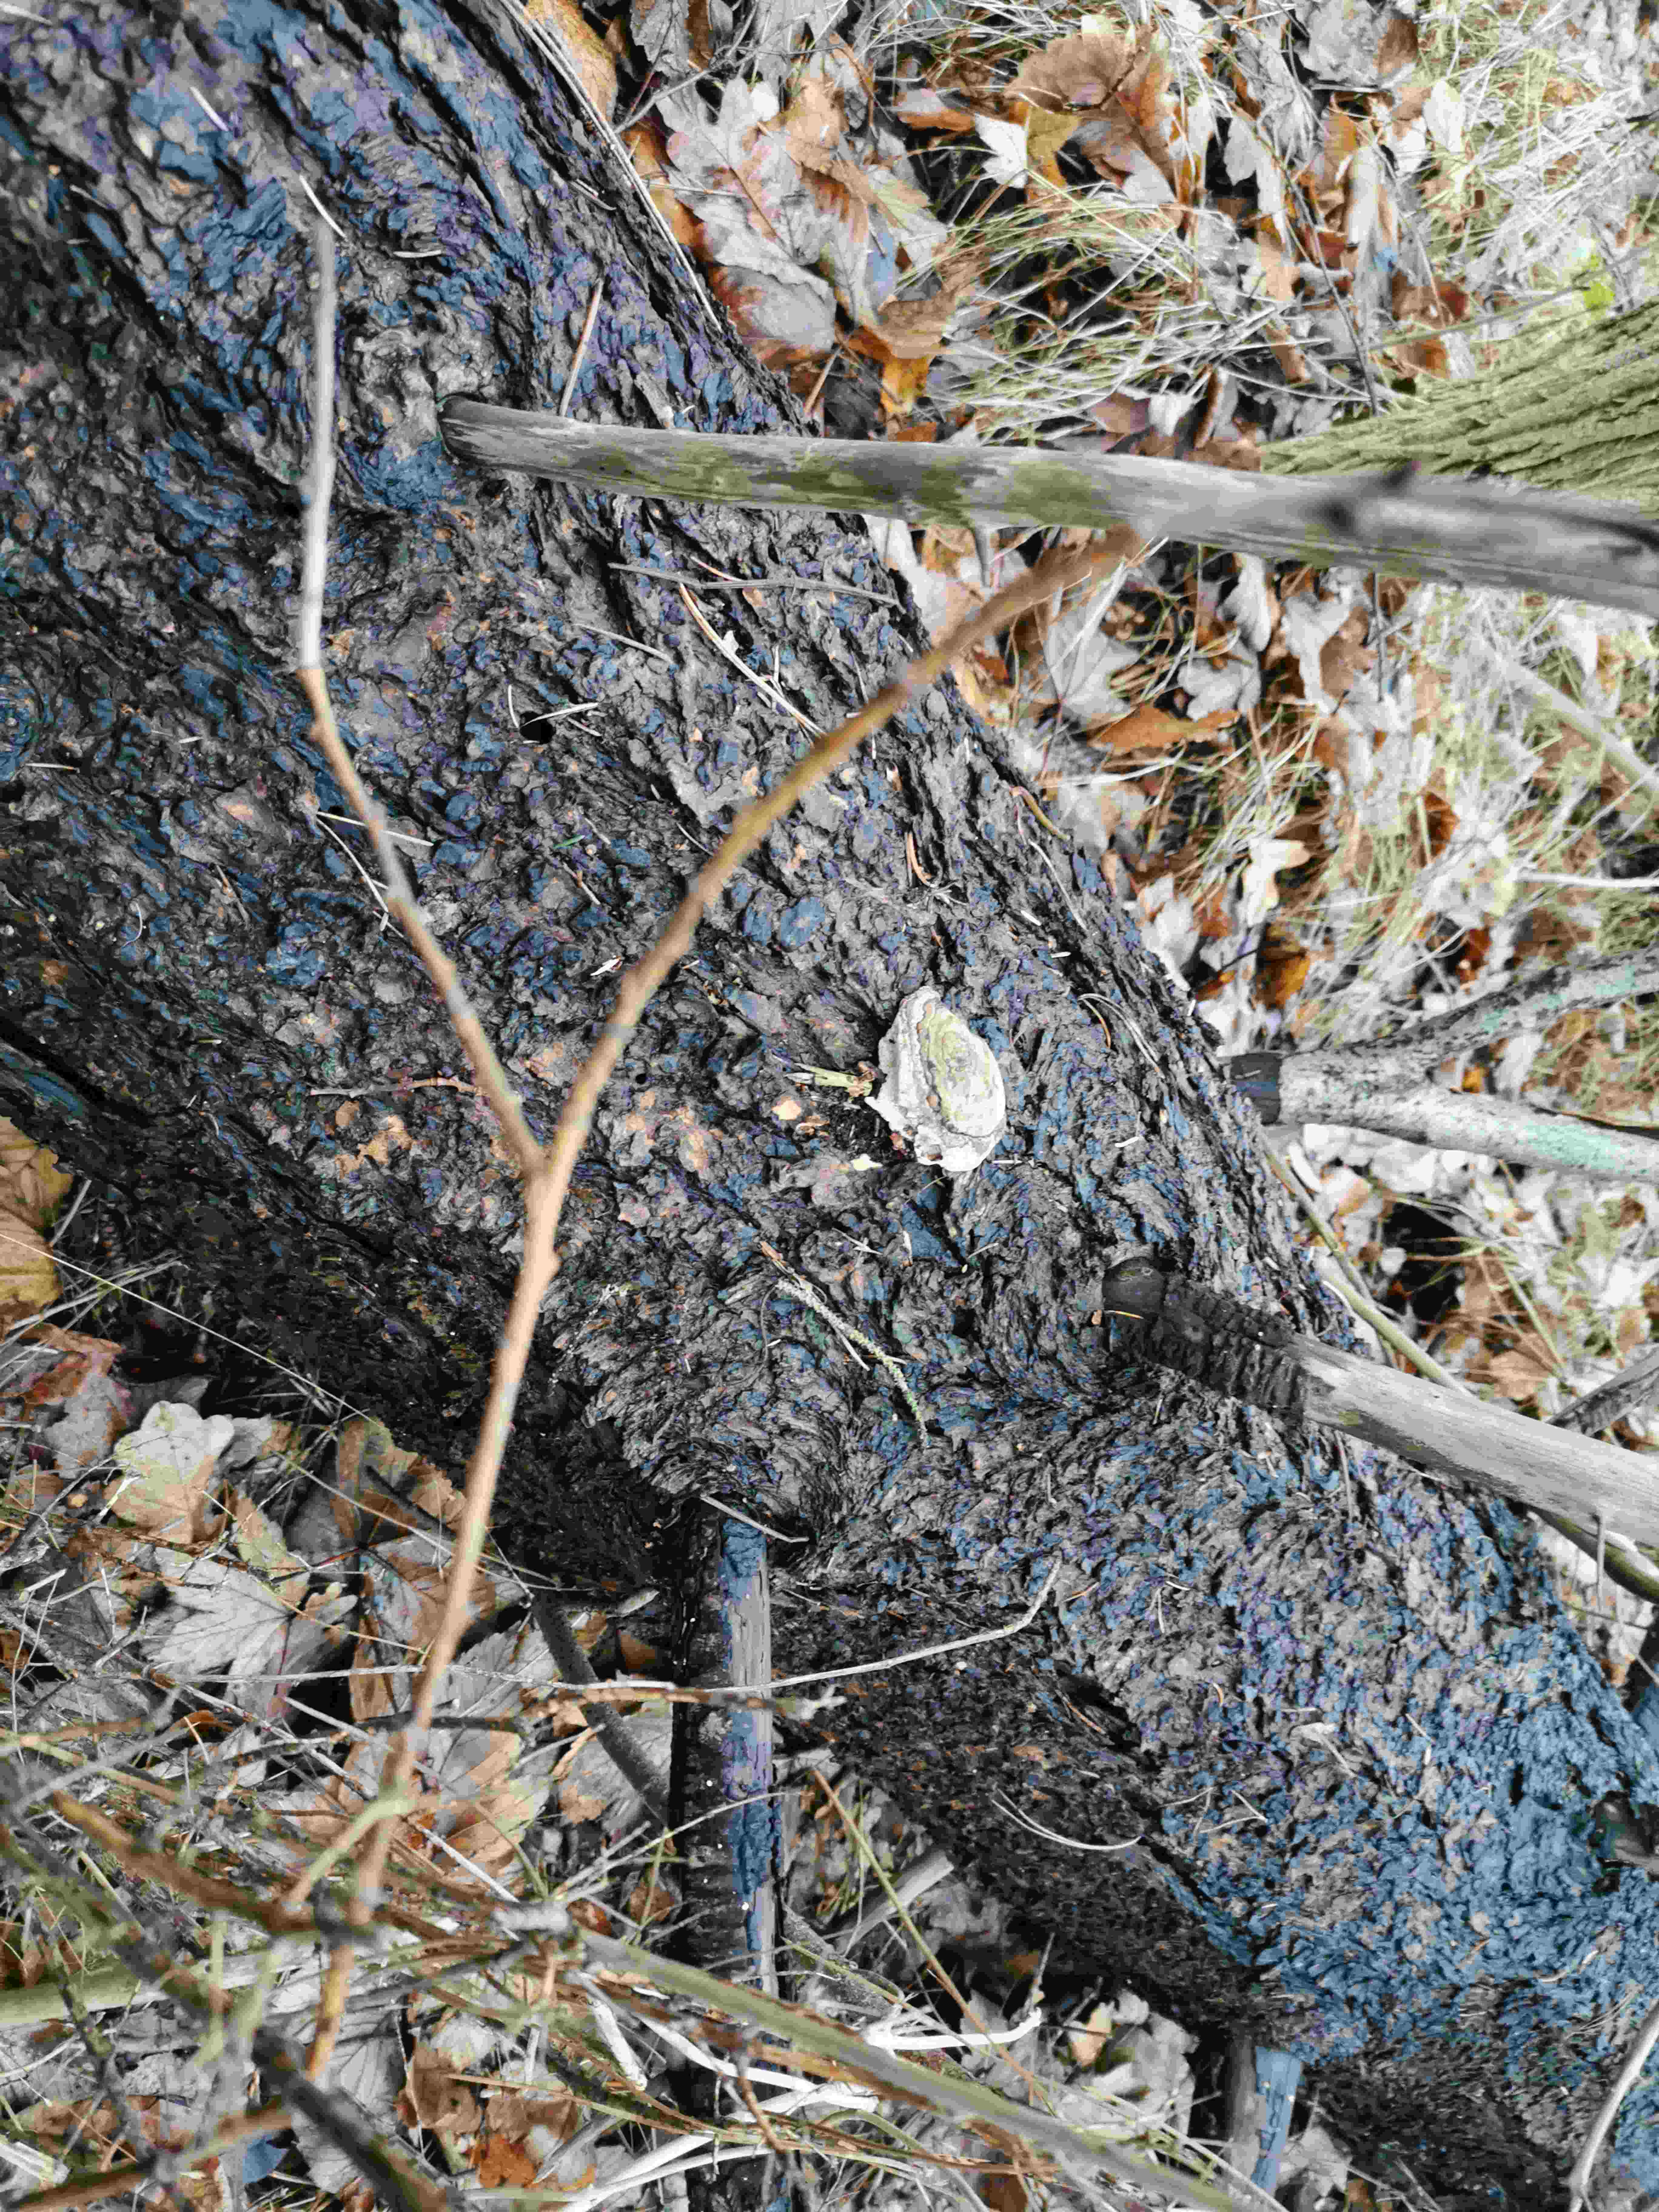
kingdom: Fungi
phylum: Basidiomycota
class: Agaricomycetes
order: Polyporales
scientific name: Polyporales
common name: poresvampordenen
